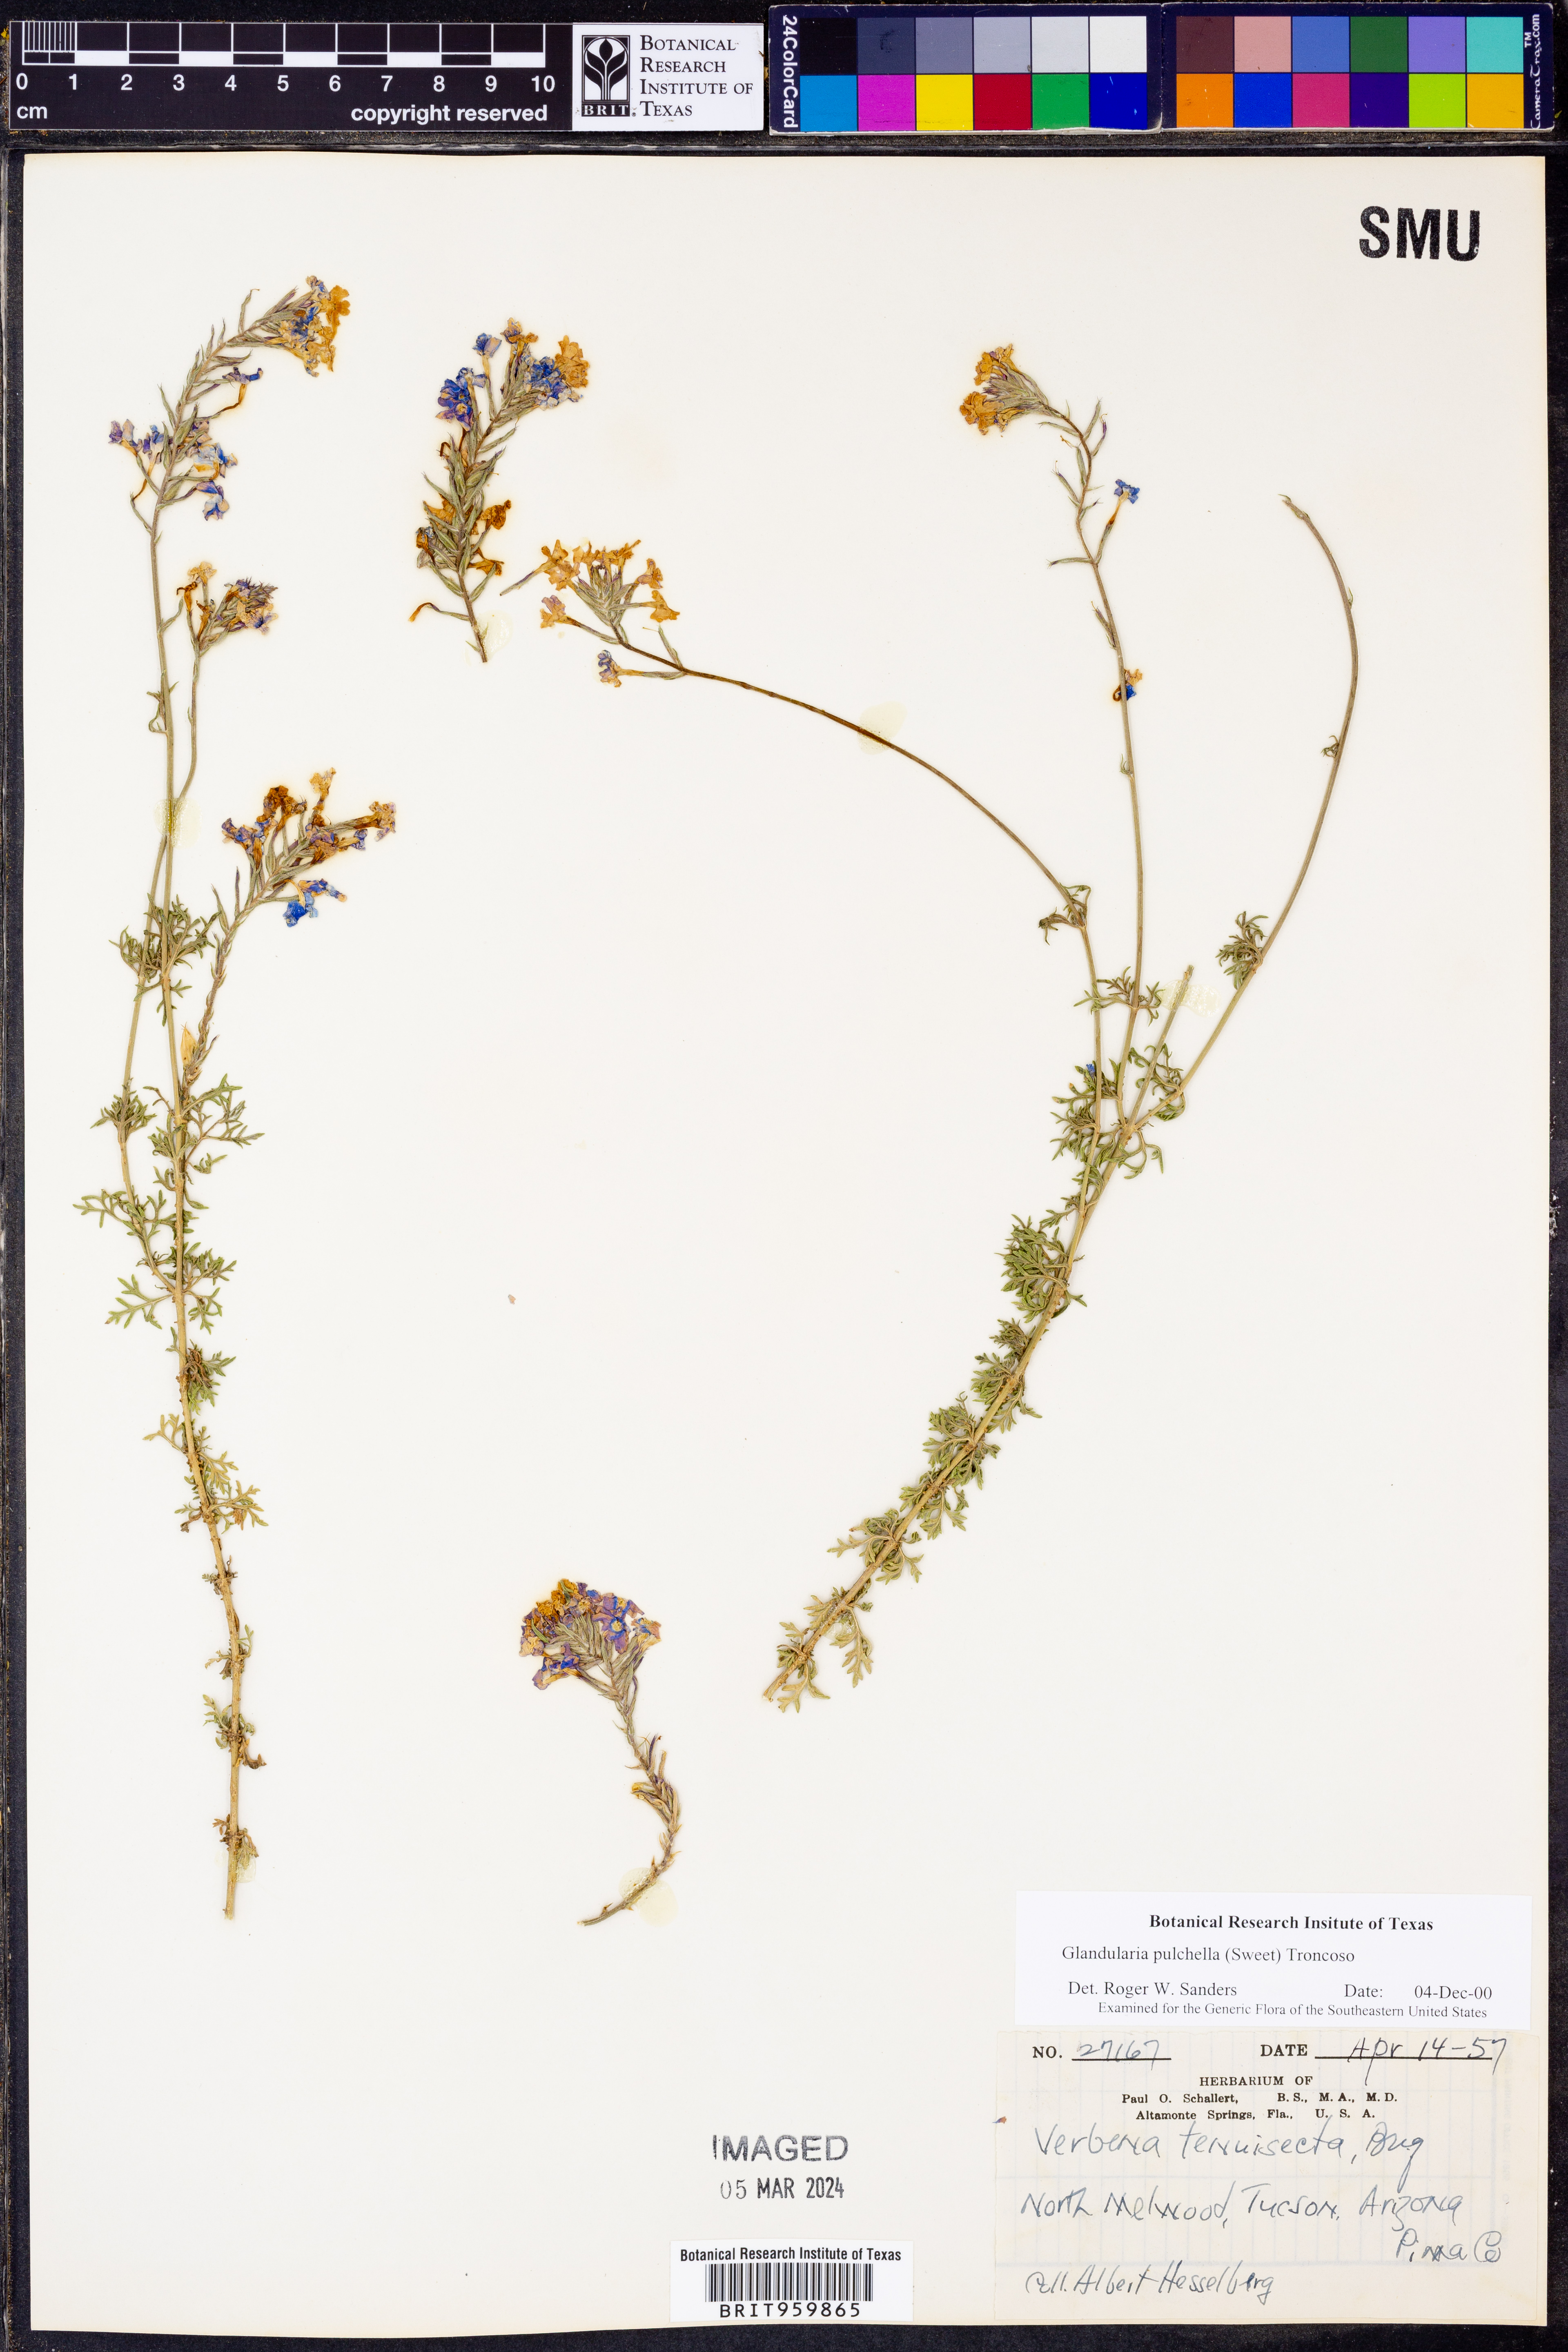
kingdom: Plantae
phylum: Tracheophyta
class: Magnoliopsida
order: Lamiales
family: Verbenaceae
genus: Verbena
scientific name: Verbena tenera
